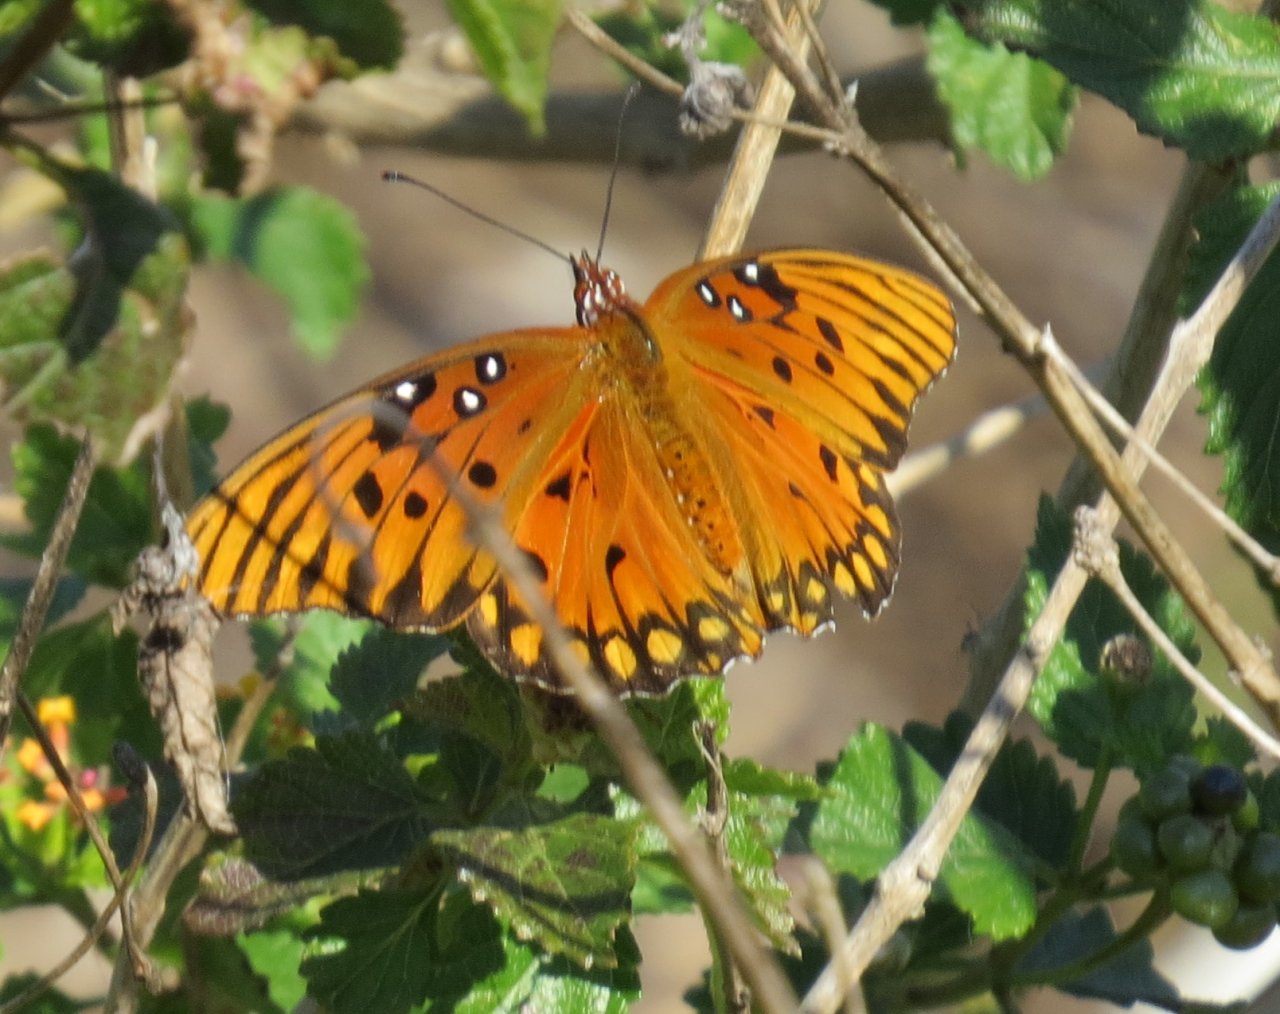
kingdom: Animalia
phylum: Arthropoda
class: Insecta
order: Lepidoptera
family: Nymphalidae
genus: Dione
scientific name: Dione vanillae
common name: Gulf Fritillary
